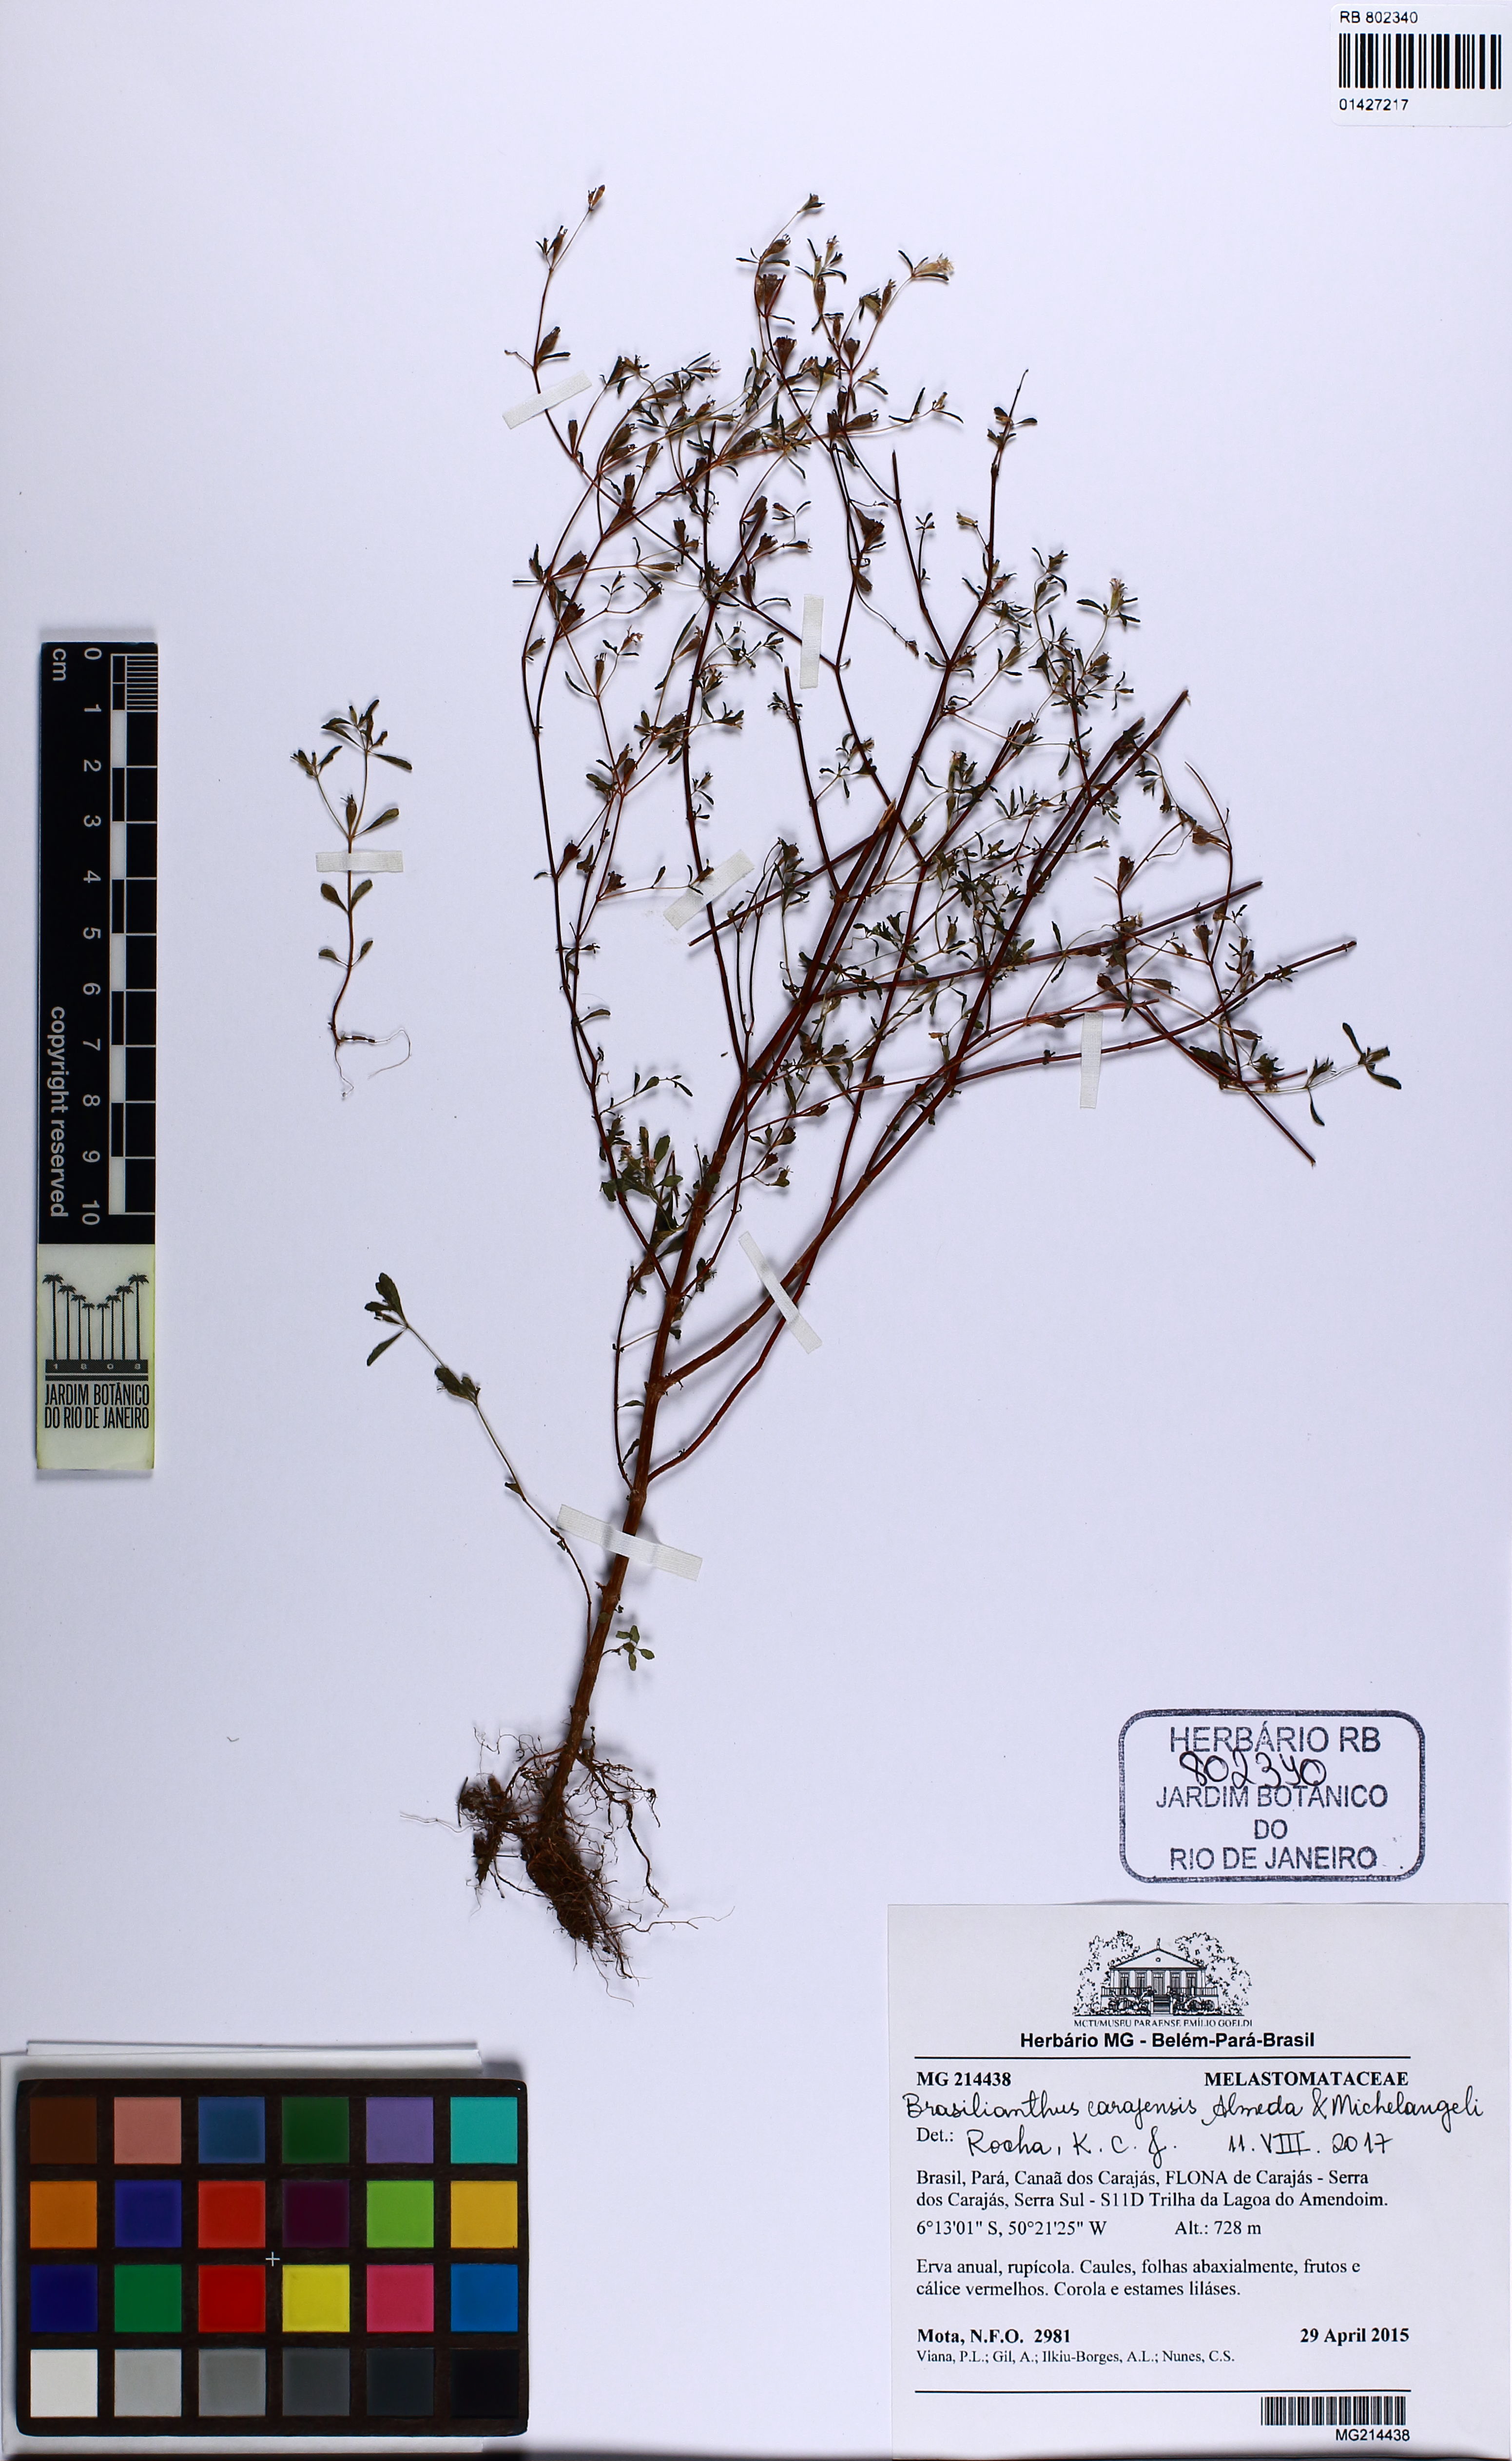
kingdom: Plantae
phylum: Tracheophyta
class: Magnoliopsida
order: Myrtales
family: Melastomataceae
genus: Brasilianthus
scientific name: Brasilianthus carajensis
